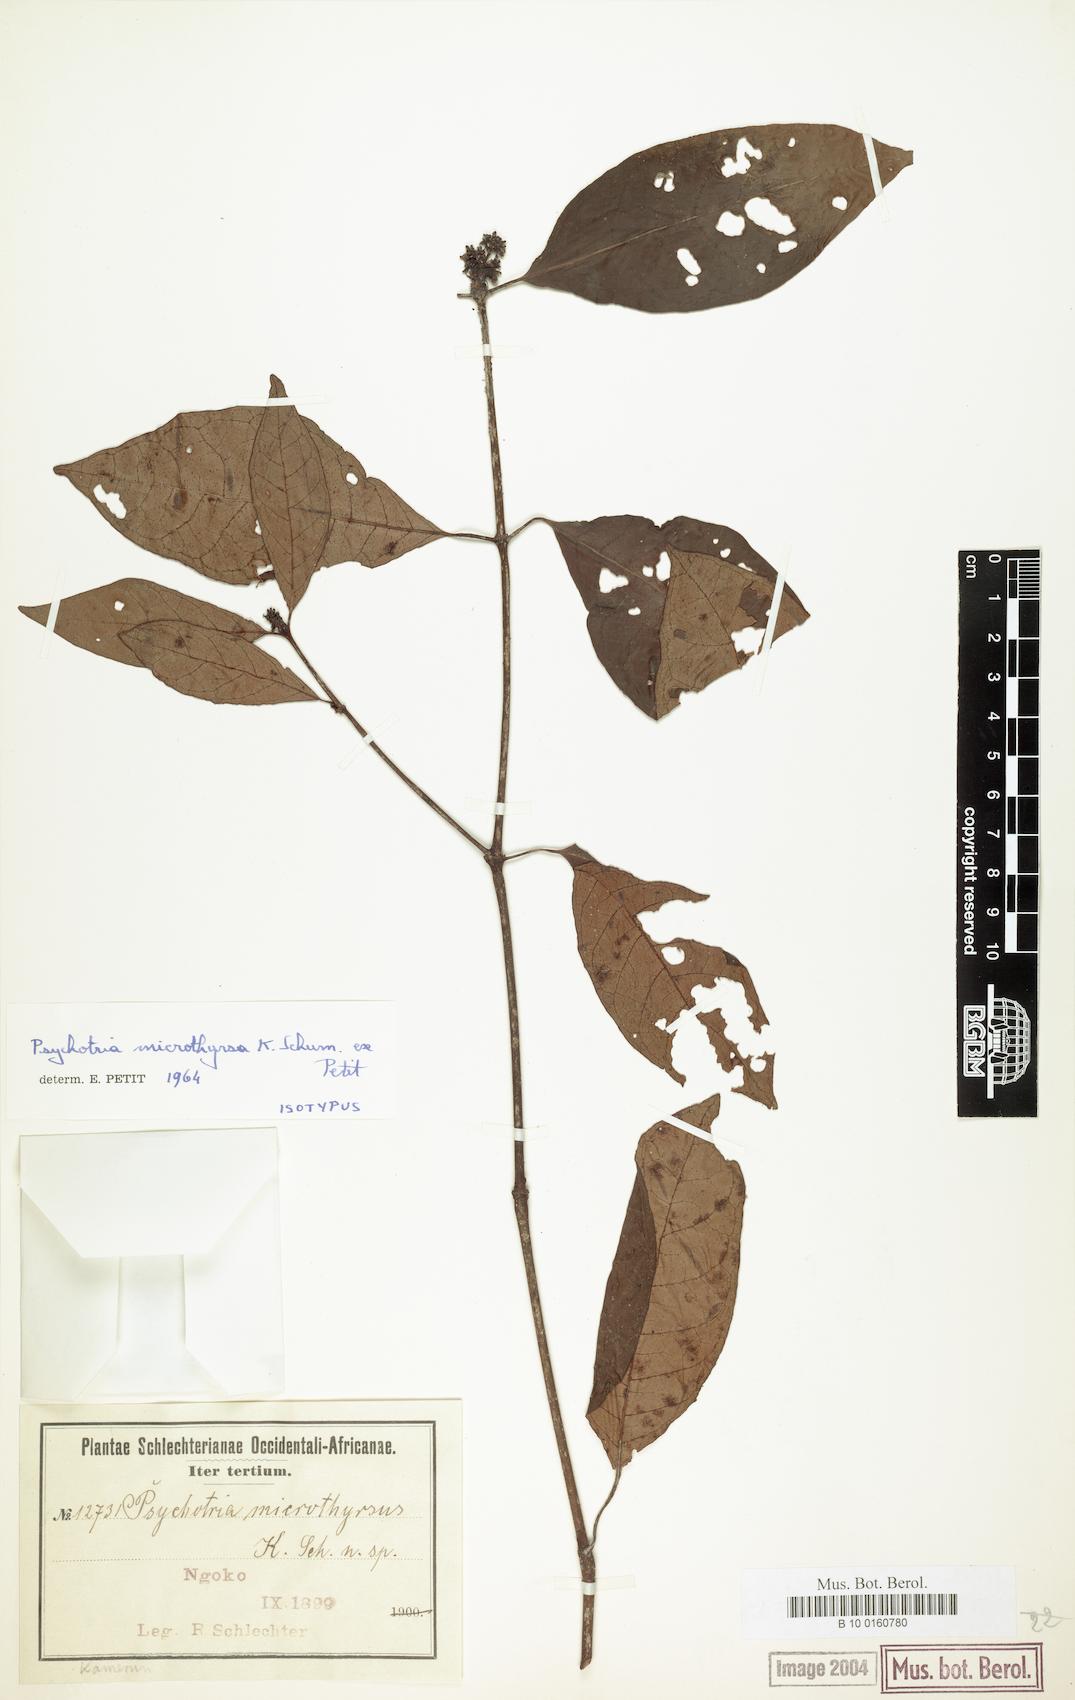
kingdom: Plantae
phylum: Tracheophyta
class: Magnoliopsida
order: Gentianales
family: Rubiaceae
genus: Psychotria
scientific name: Psychotria microthyrsus
